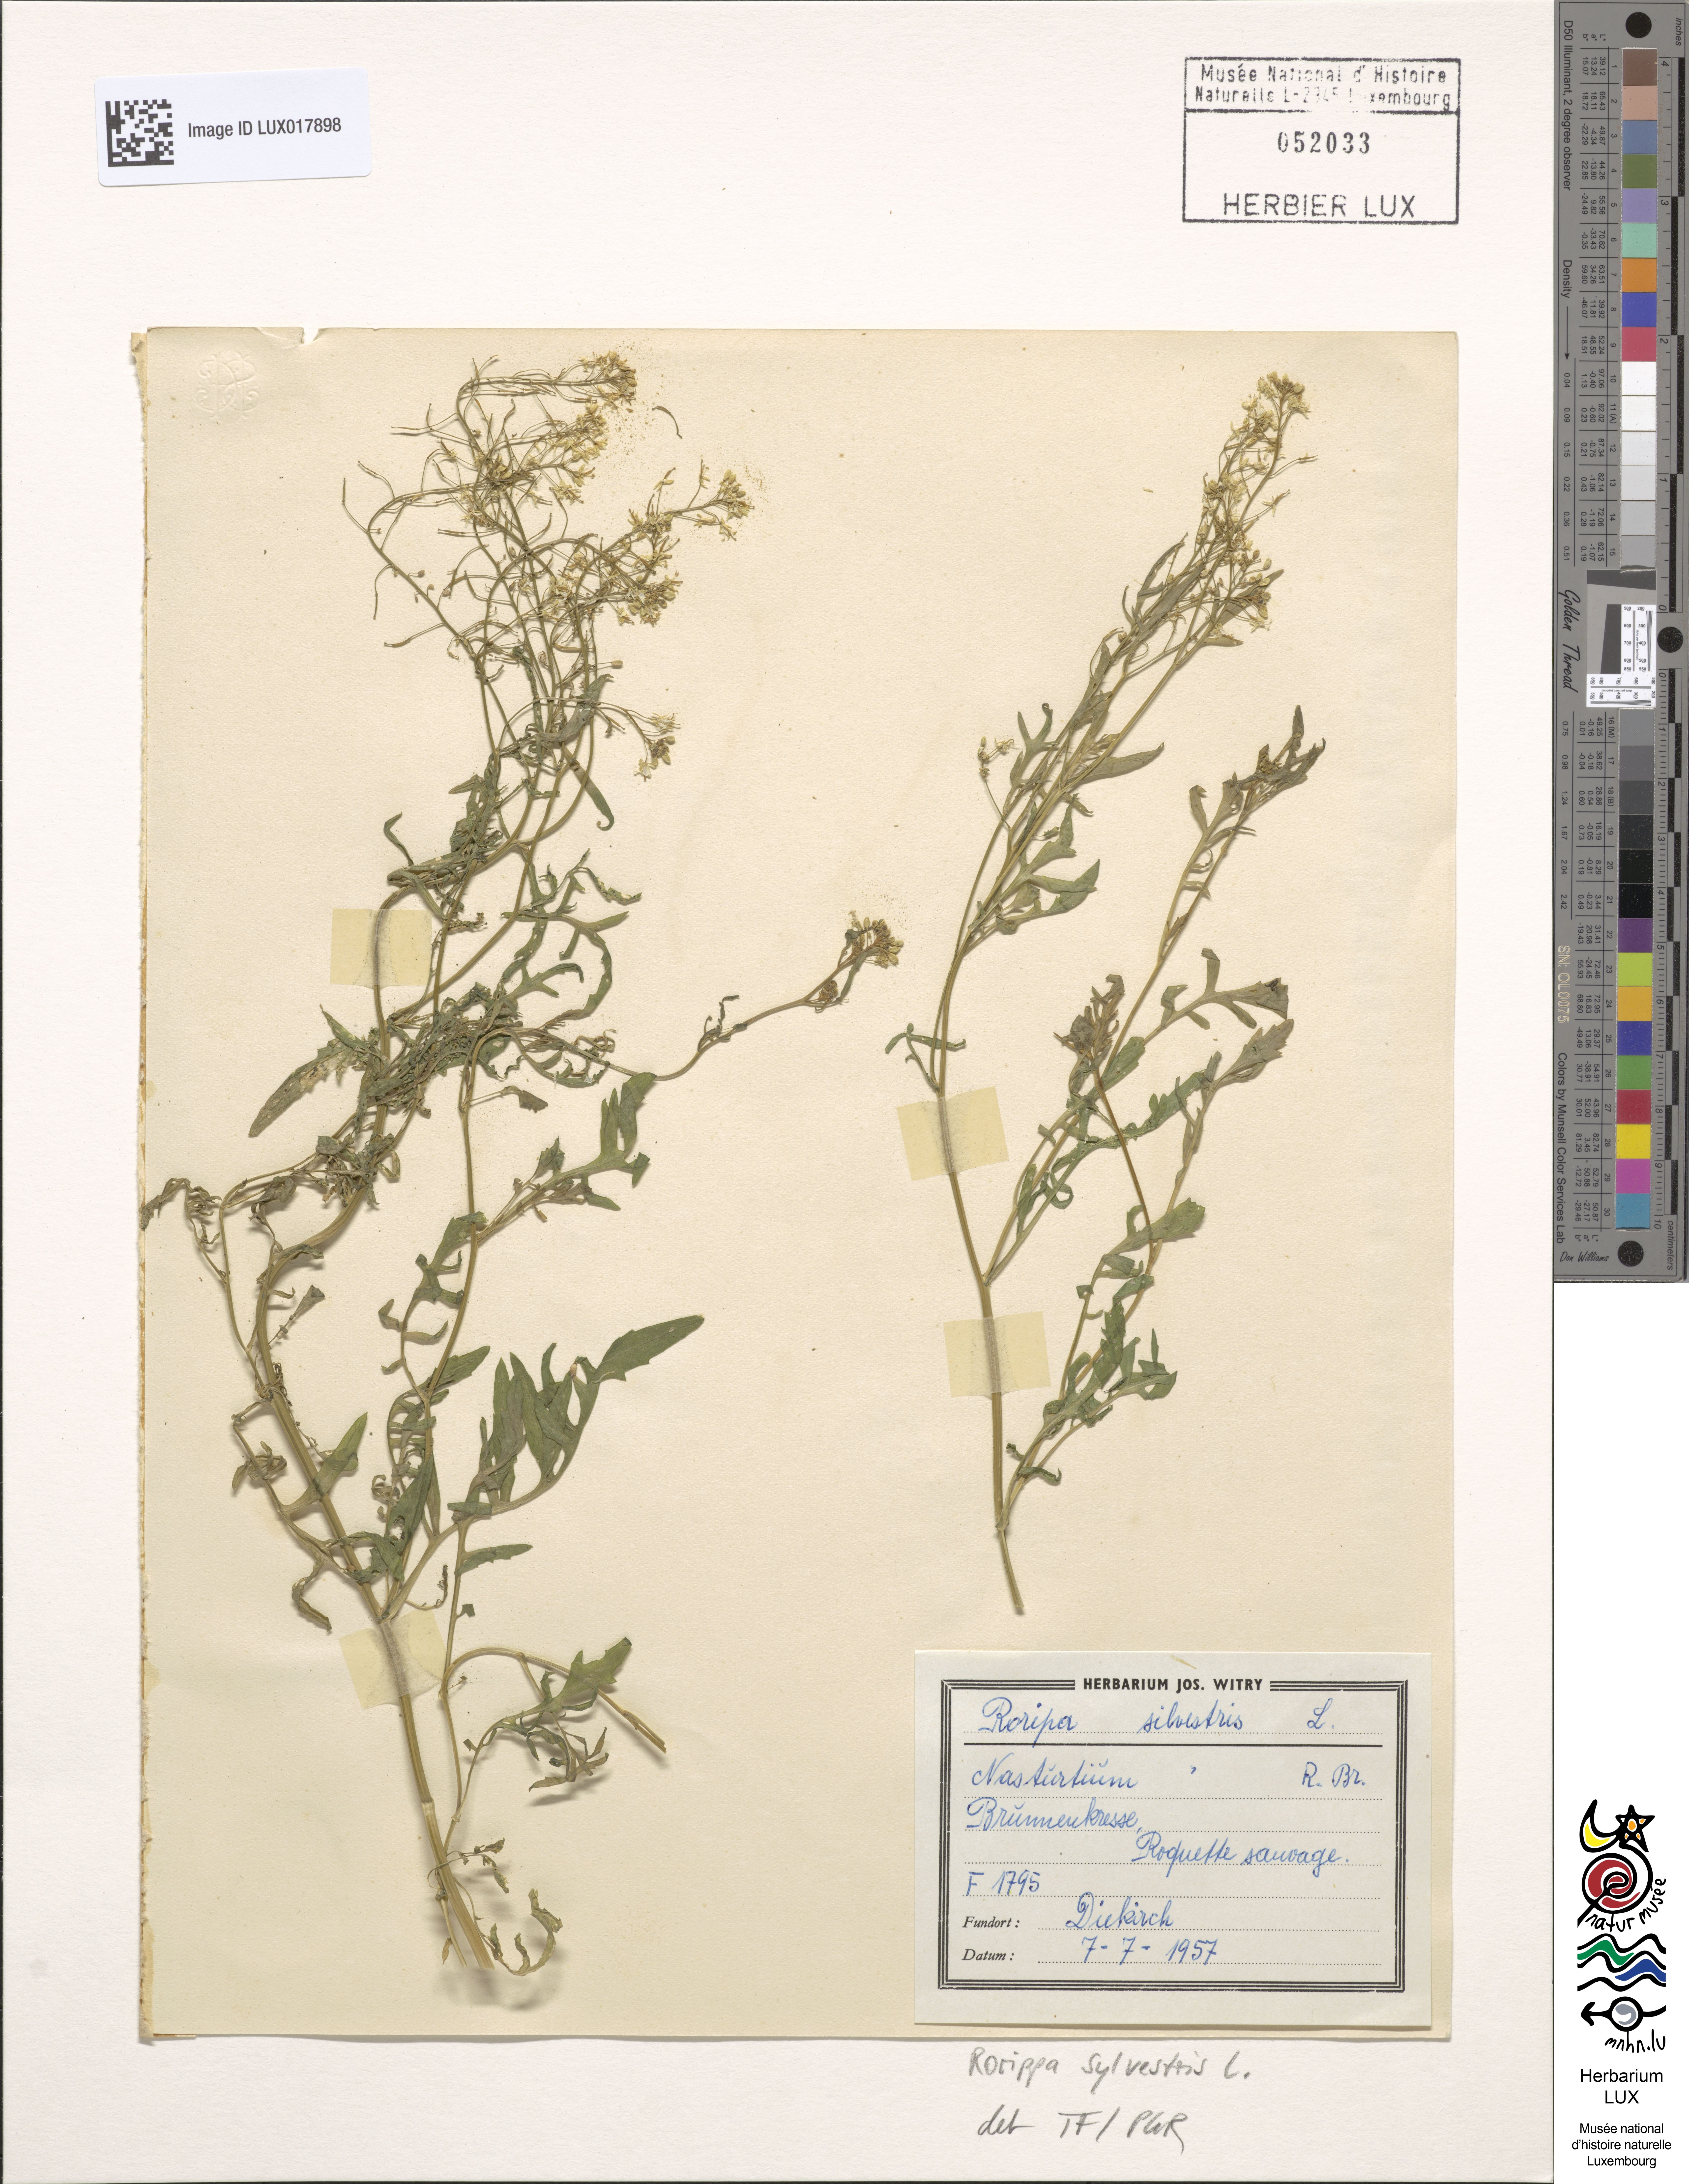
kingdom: Plantae
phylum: Tracheophyta
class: Magnoliopsida
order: Brassicales
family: Brassicaceae
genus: Rorippa
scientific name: Rorippa sylvestris
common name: Creeping yellowcress
